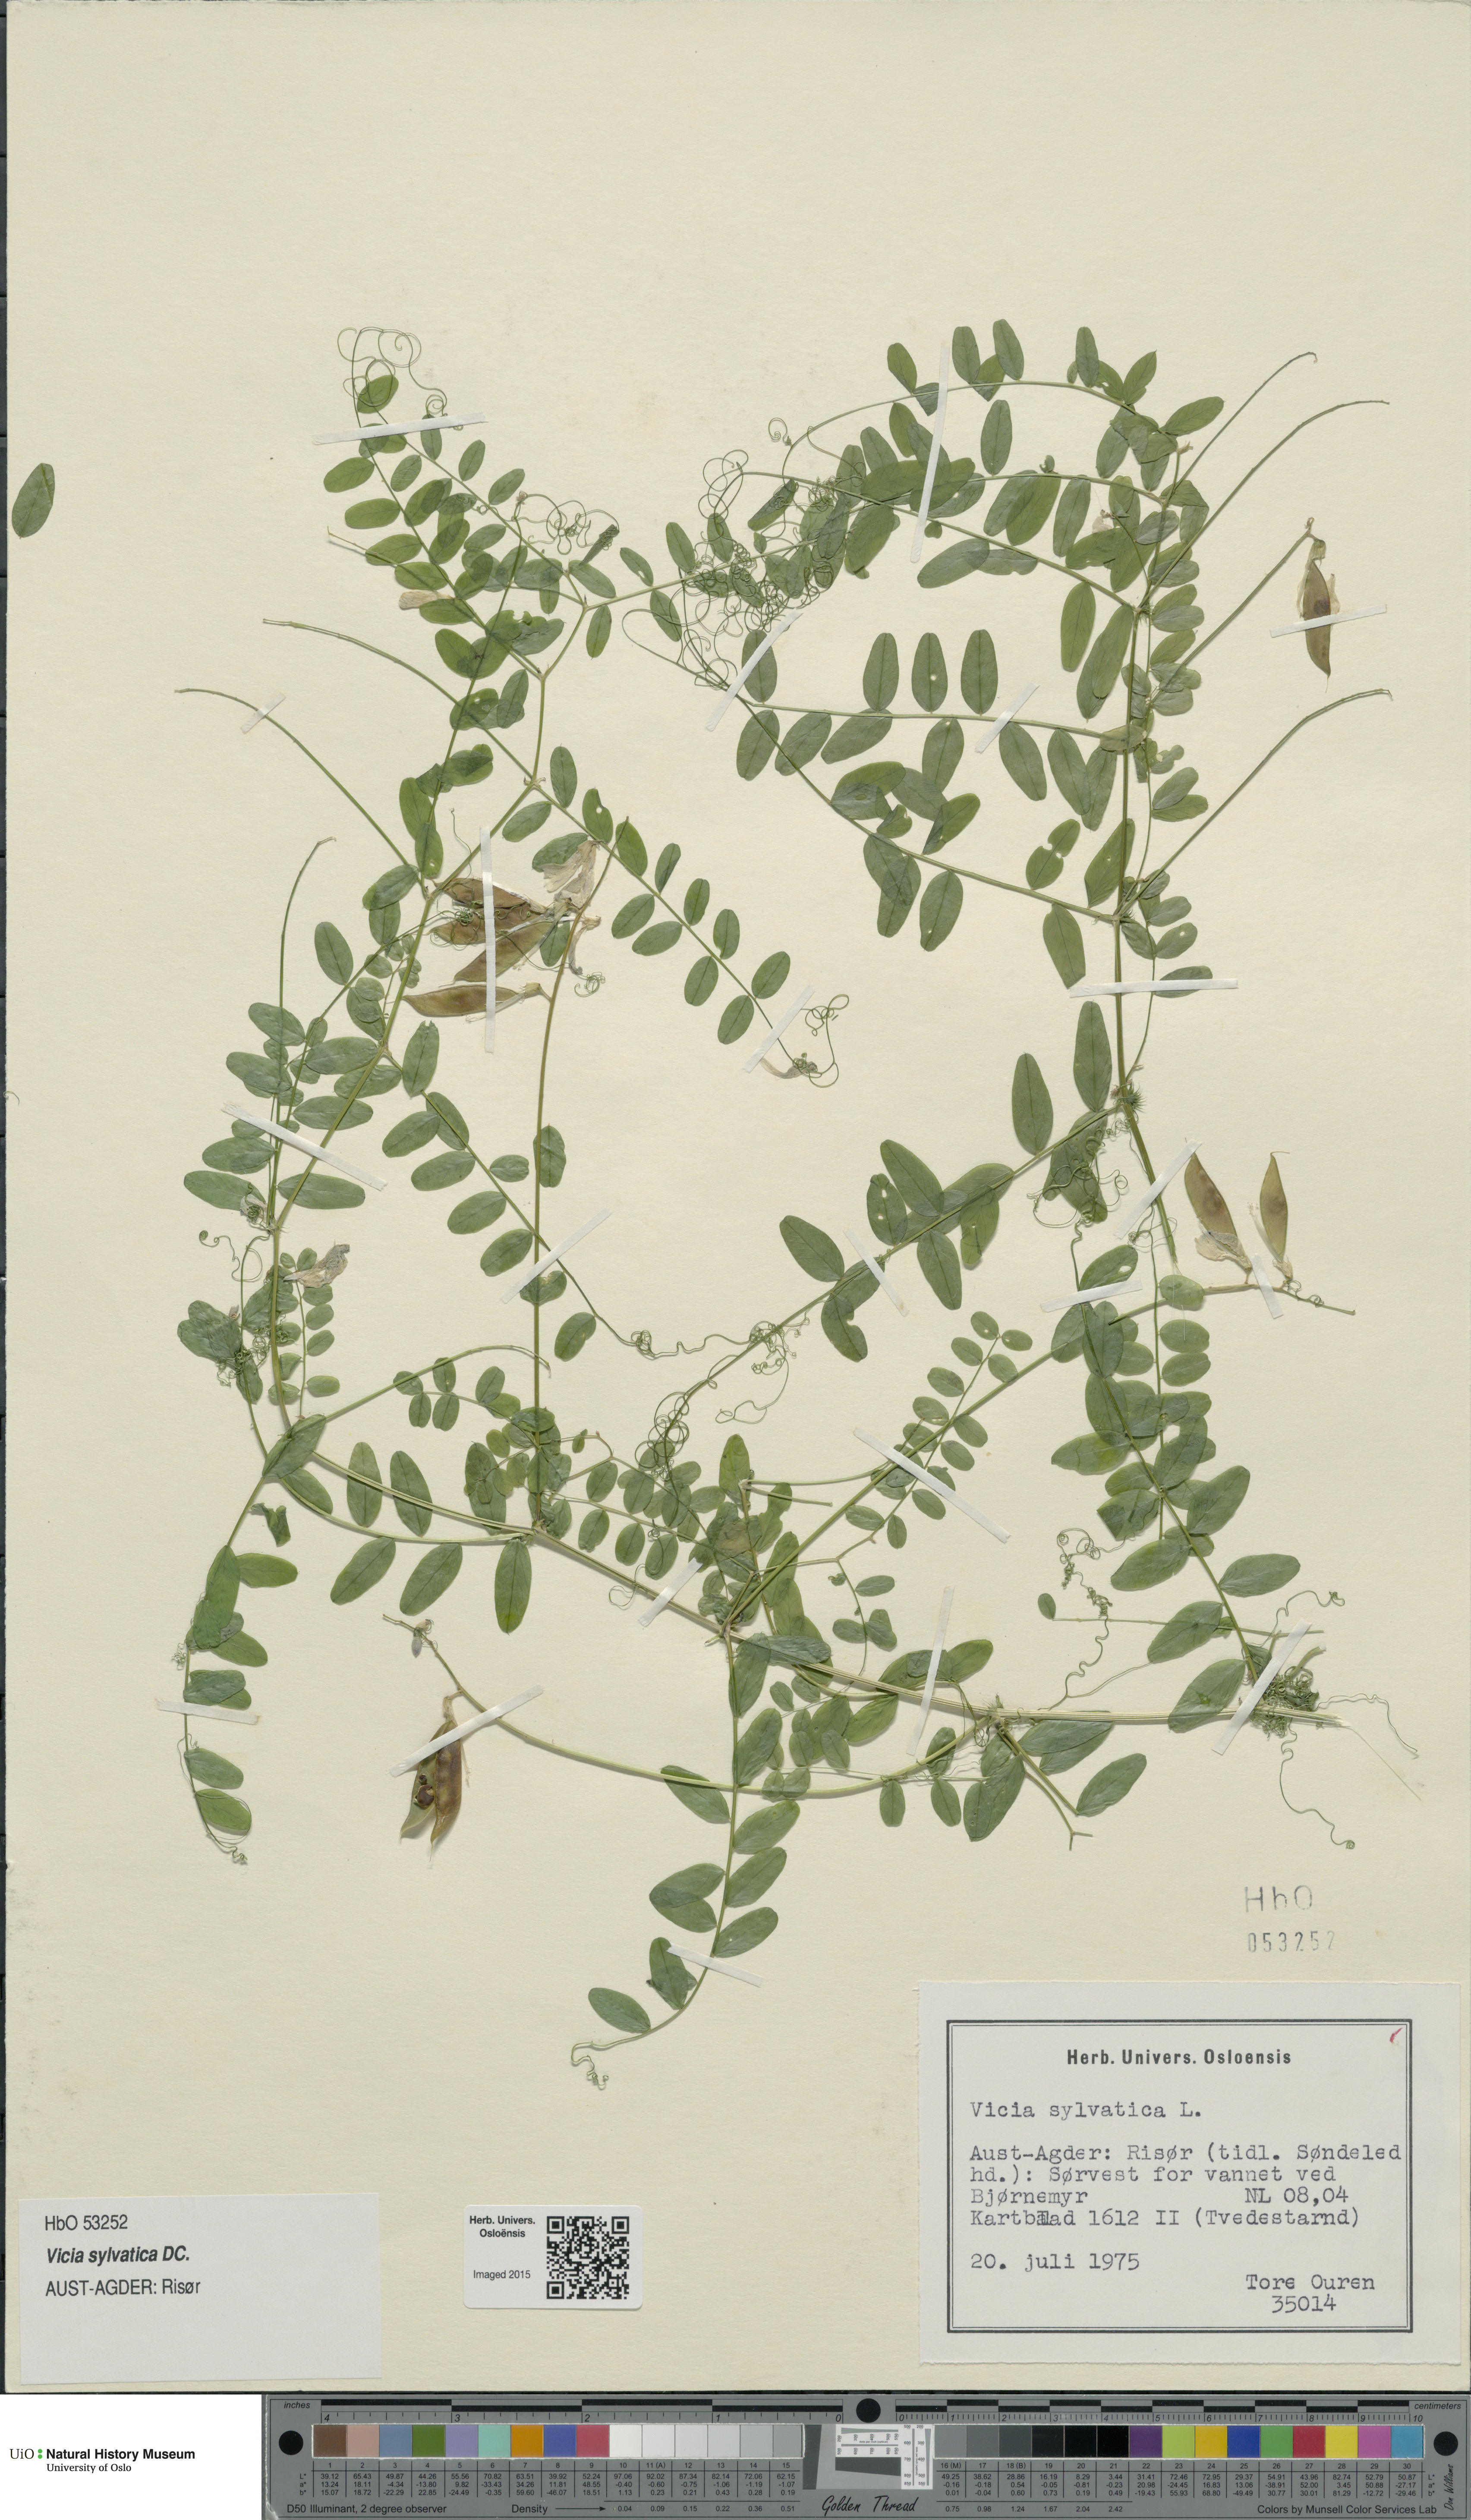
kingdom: Plantae
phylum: Tracheophyta
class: Magnoliopsida
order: Fabales
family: Fabaceae
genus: Vicia
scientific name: Vicia sylvatica
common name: Wood vetch
